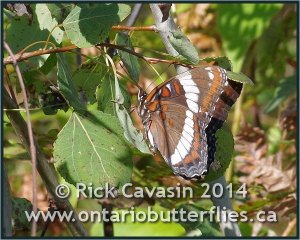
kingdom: Animalia
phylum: Arthropoda
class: Insecta
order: Lepidoptera
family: Nymphalidae
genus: Limenitis
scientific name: Limenitis arthemis
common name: Red-spotted Admiral
